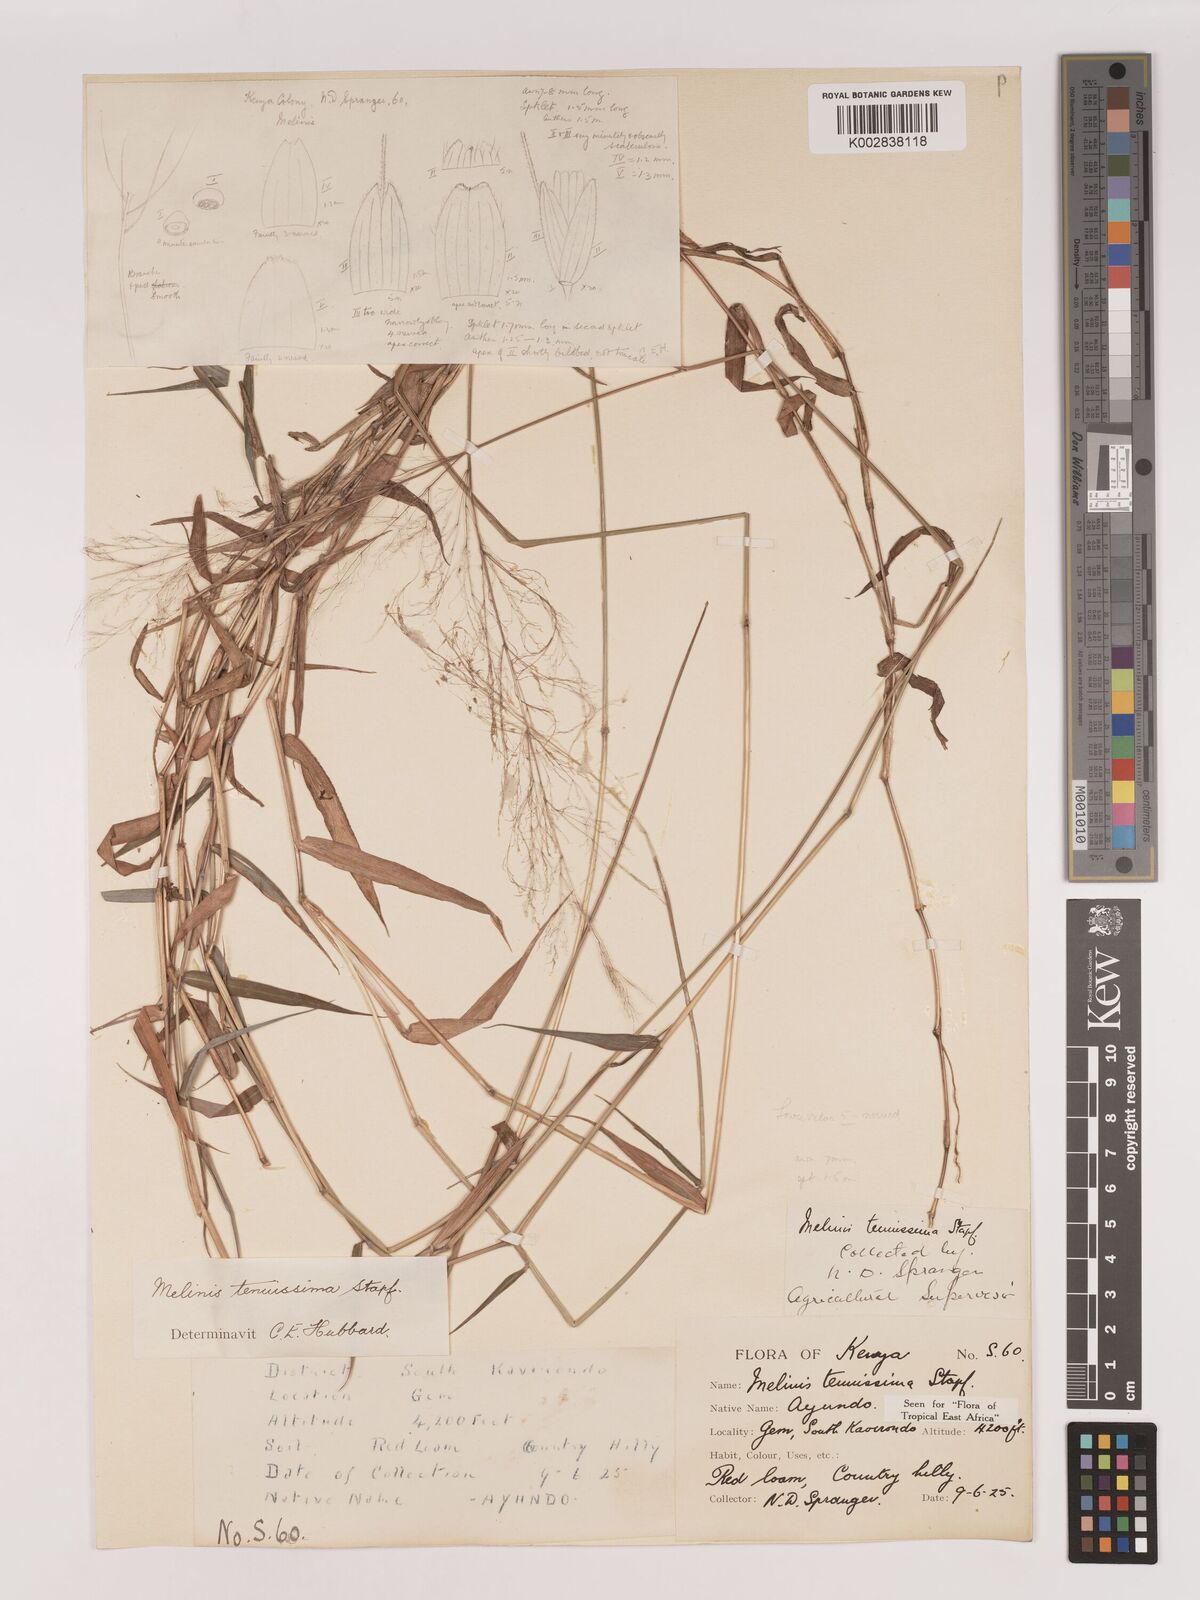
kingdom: Plantae
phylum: Tracheophyta
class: Liliopsida
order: Poales
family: Poaceae
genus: Melinis
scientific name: Melinis tenuissima
